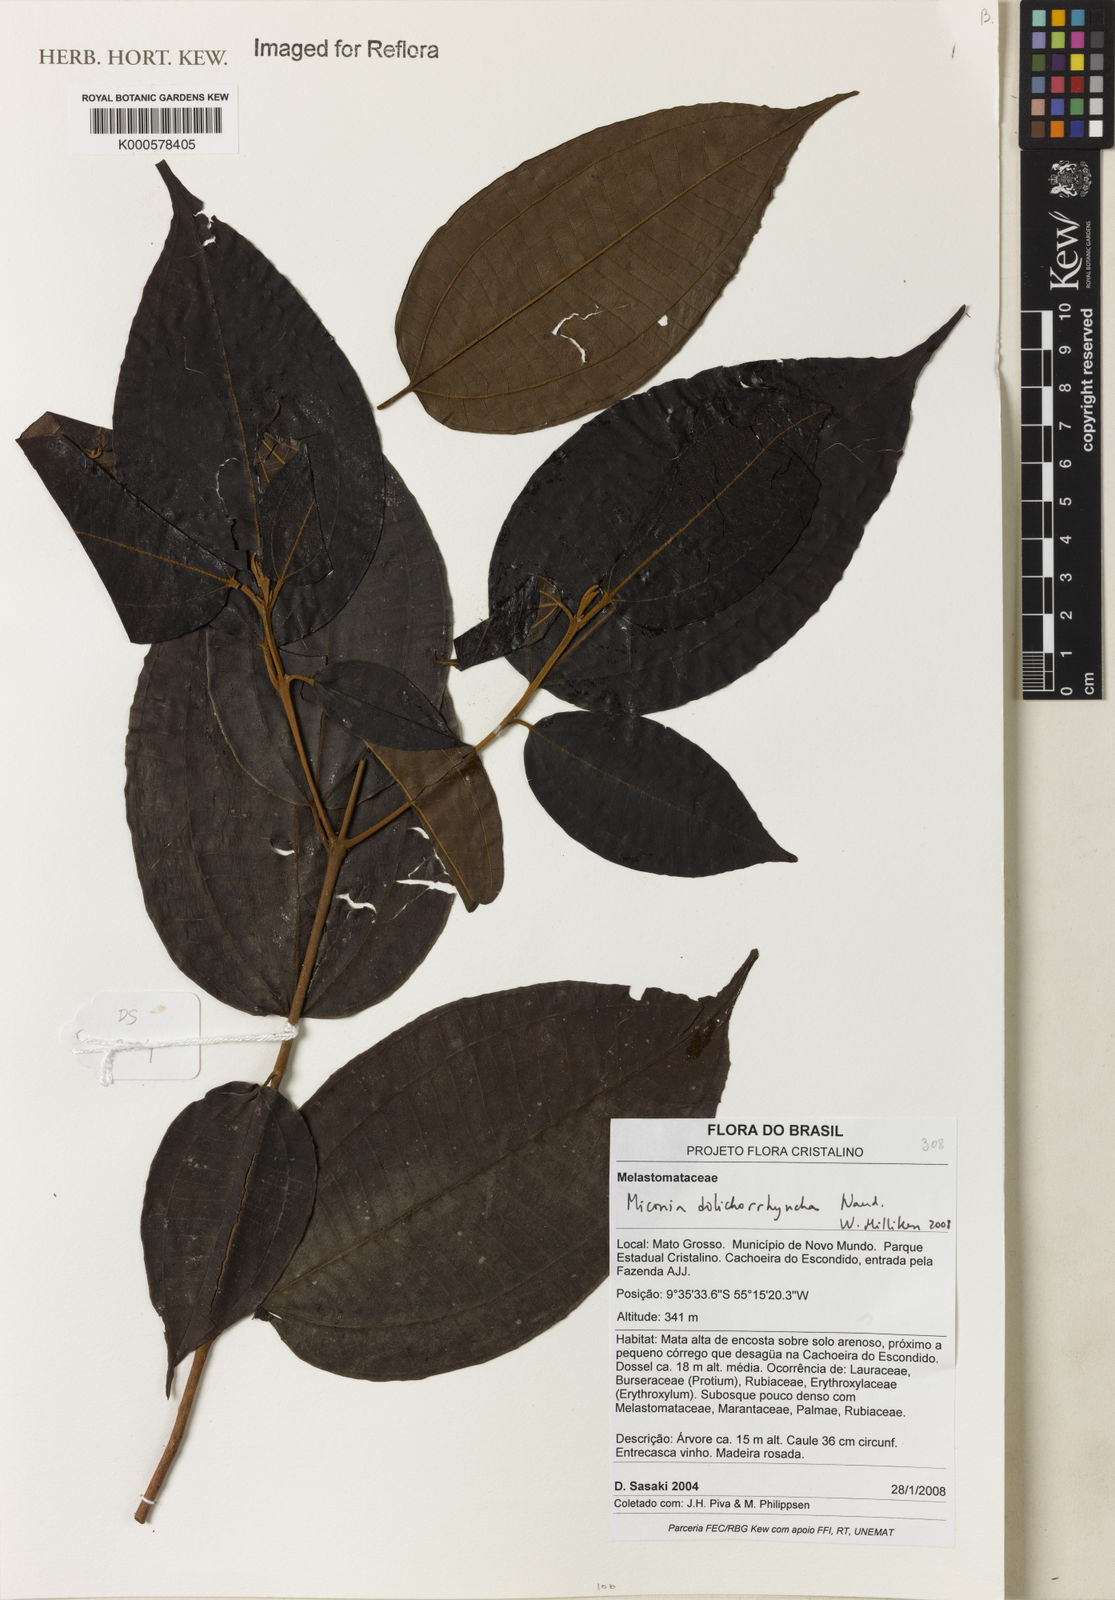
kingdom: Plantae
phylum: Tracheophyta
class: Magnoliopsida
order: Myrtales
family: Melastomataceae
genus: Miconia
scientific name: Miconia dolichorrhyncha
